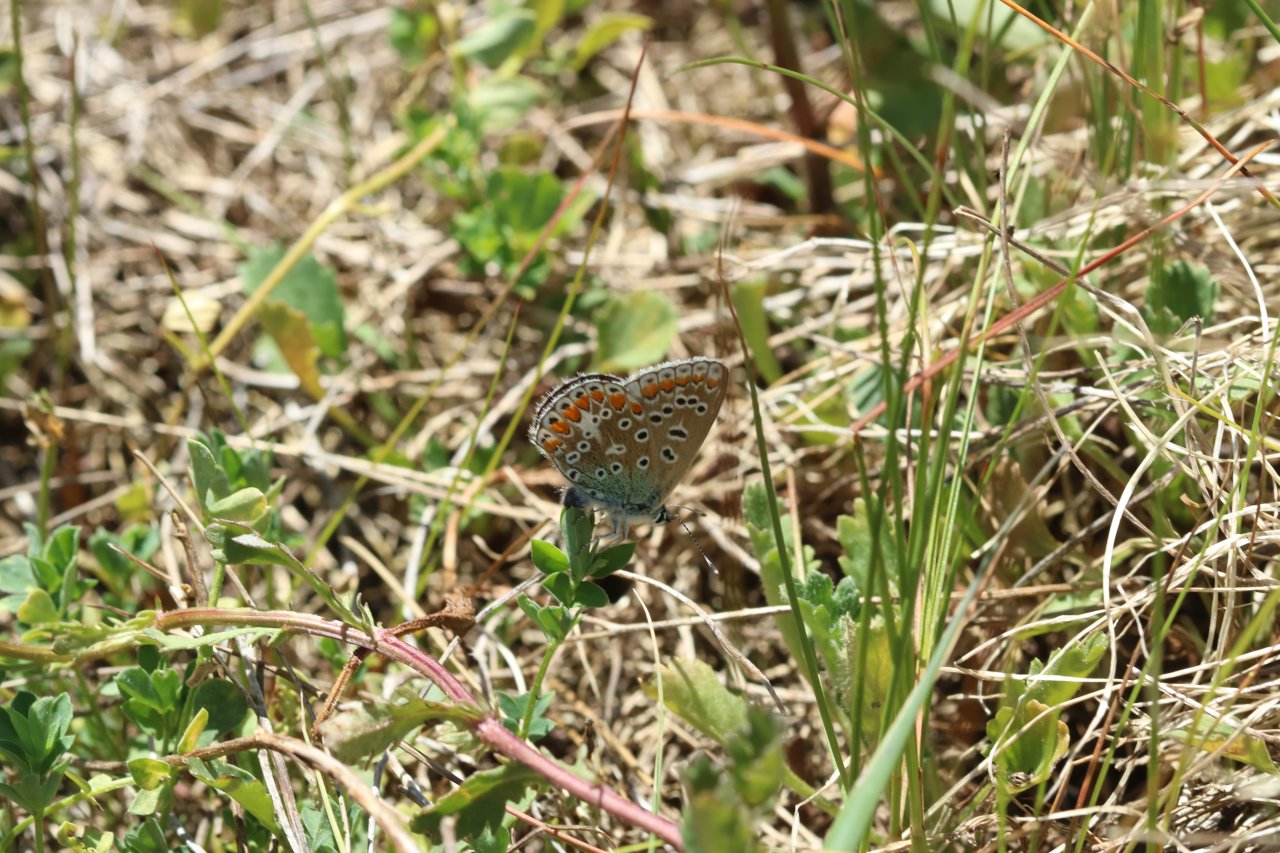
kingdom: Animalia
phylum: Arthropoda
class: Insecta
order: Lepidoptera
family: Lycaenidae
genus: Polyommatus
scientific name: Polyommatus icarus
